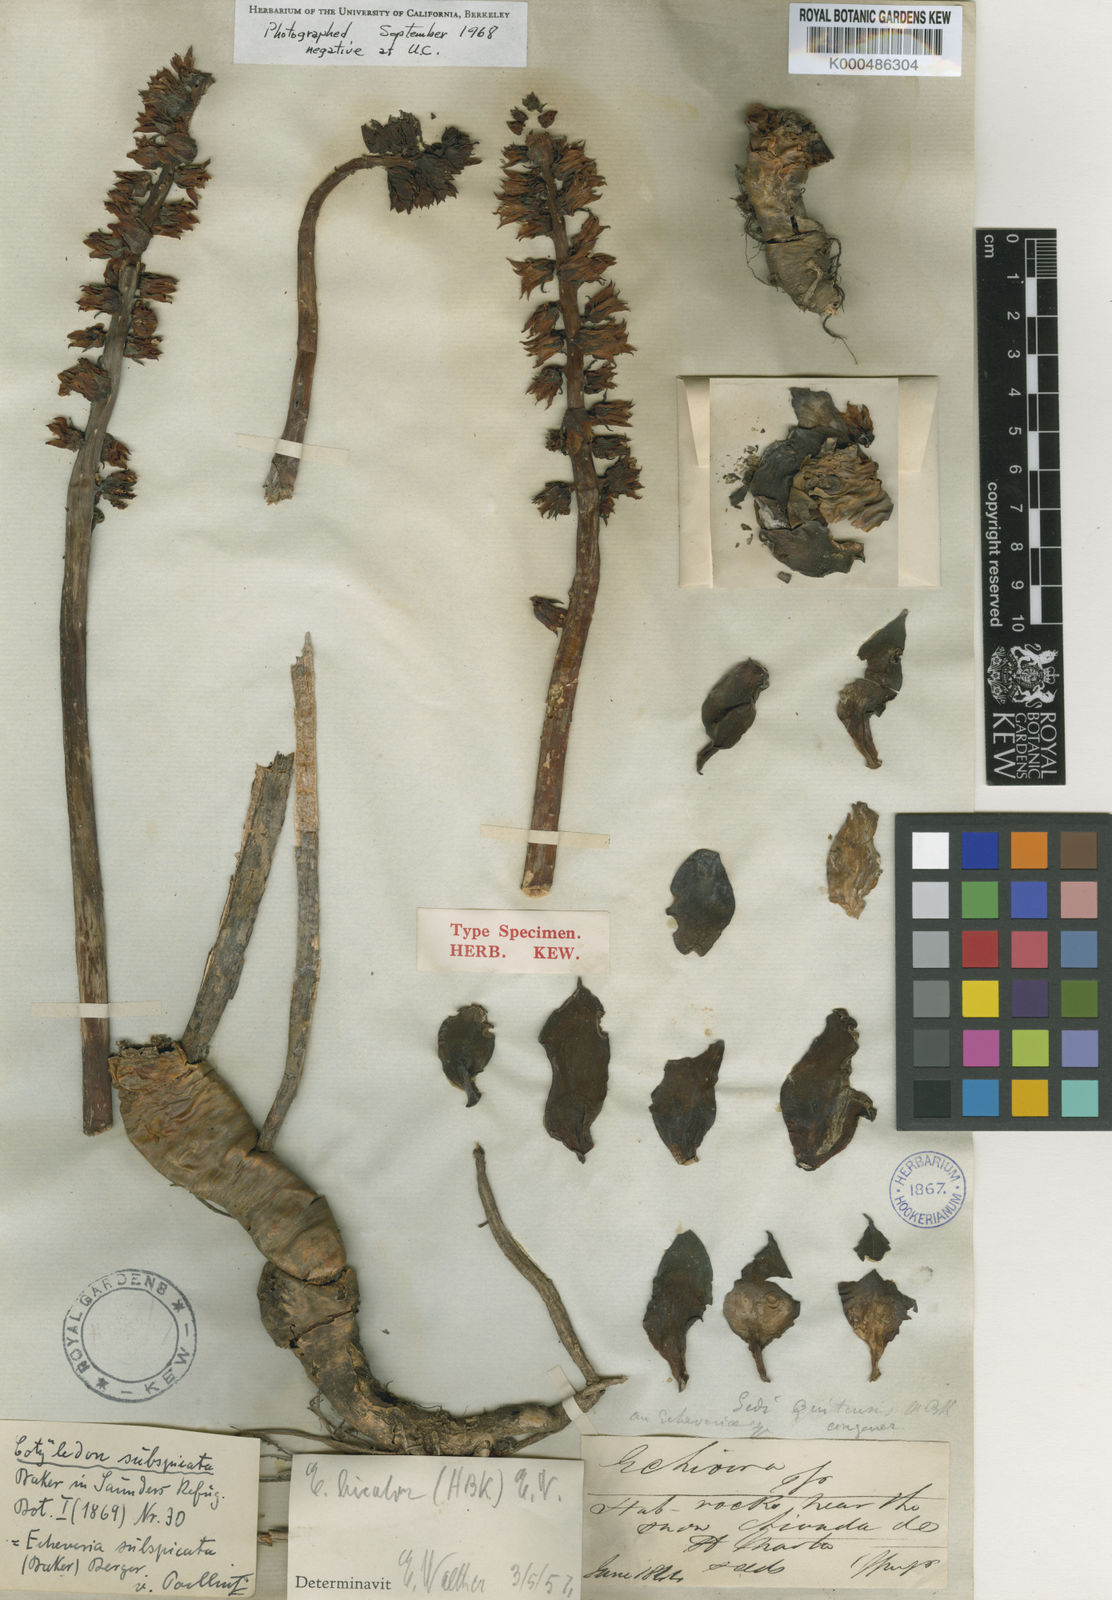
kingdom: Plantae
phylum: Tracheophyta
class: Magnoliopsida
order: Saxifragales
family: Crassulaceae
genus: Echeveria
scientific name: Echeveria bicolor
